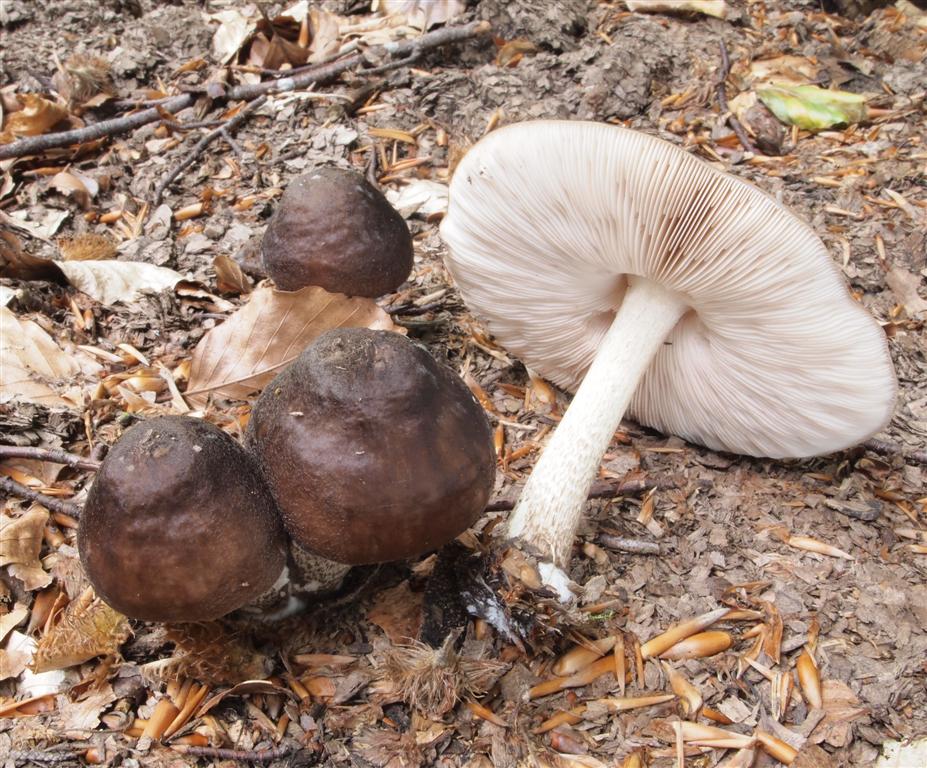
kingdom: Fungi
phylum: Basidiomycota
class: Agaricomycetes
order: Agaricales
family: Pluteaceae
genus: Pluteus
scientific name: Pluteus cervinus
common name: sodfarvet skærmhat
